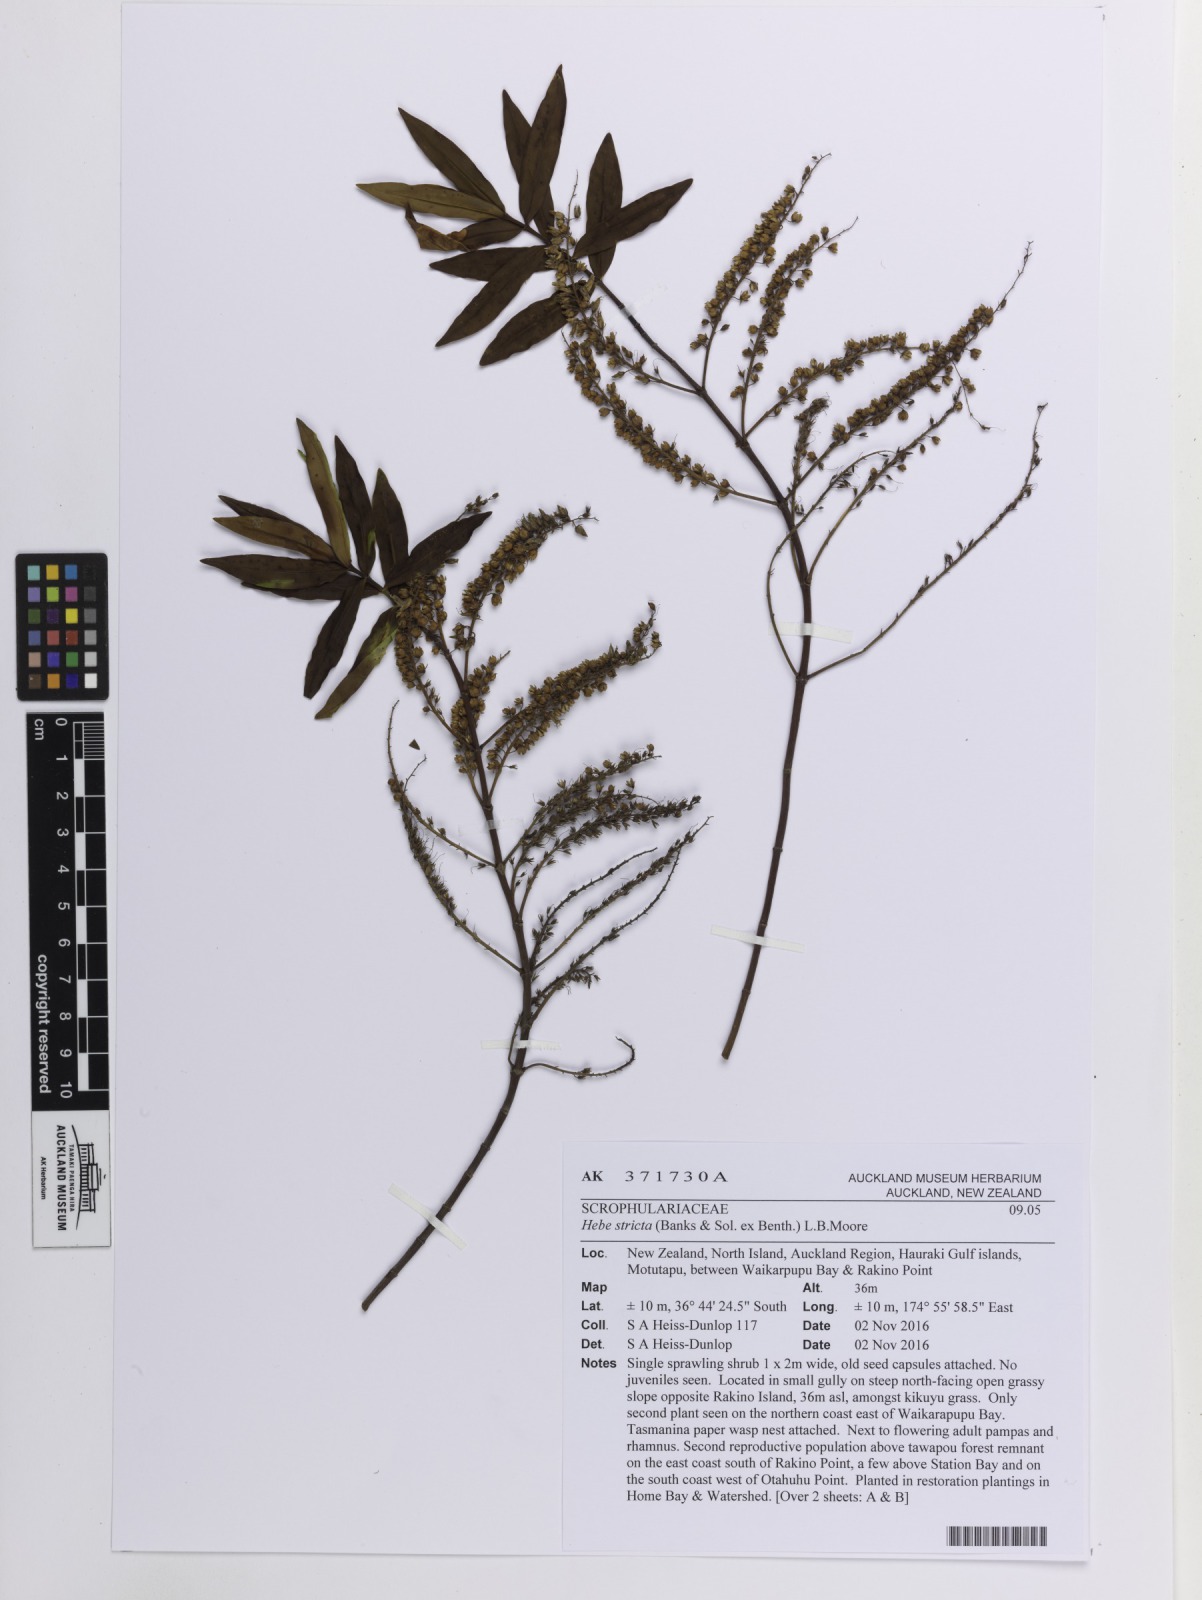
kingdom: Plantae
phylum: Tracheophyta
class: Magnoliopsida
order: Lamiales
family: Plantaginaceae
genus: Veronica
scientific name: Veronica stricta
